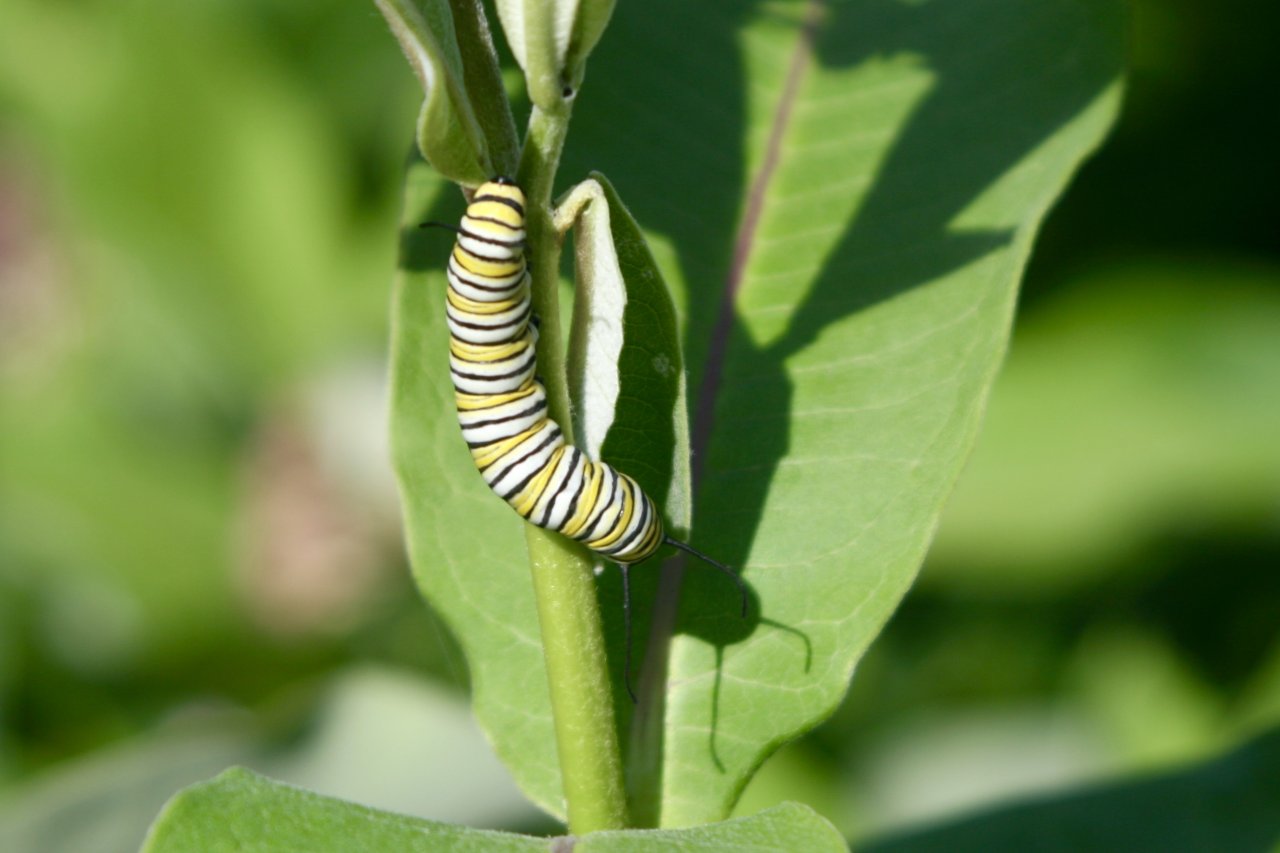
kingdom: Animalia
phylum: Arthropoda
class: Insecta
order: Lepidoptera
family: Nymphalidae
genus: Danaus
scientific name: Danaus plexippus
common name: Monarch
